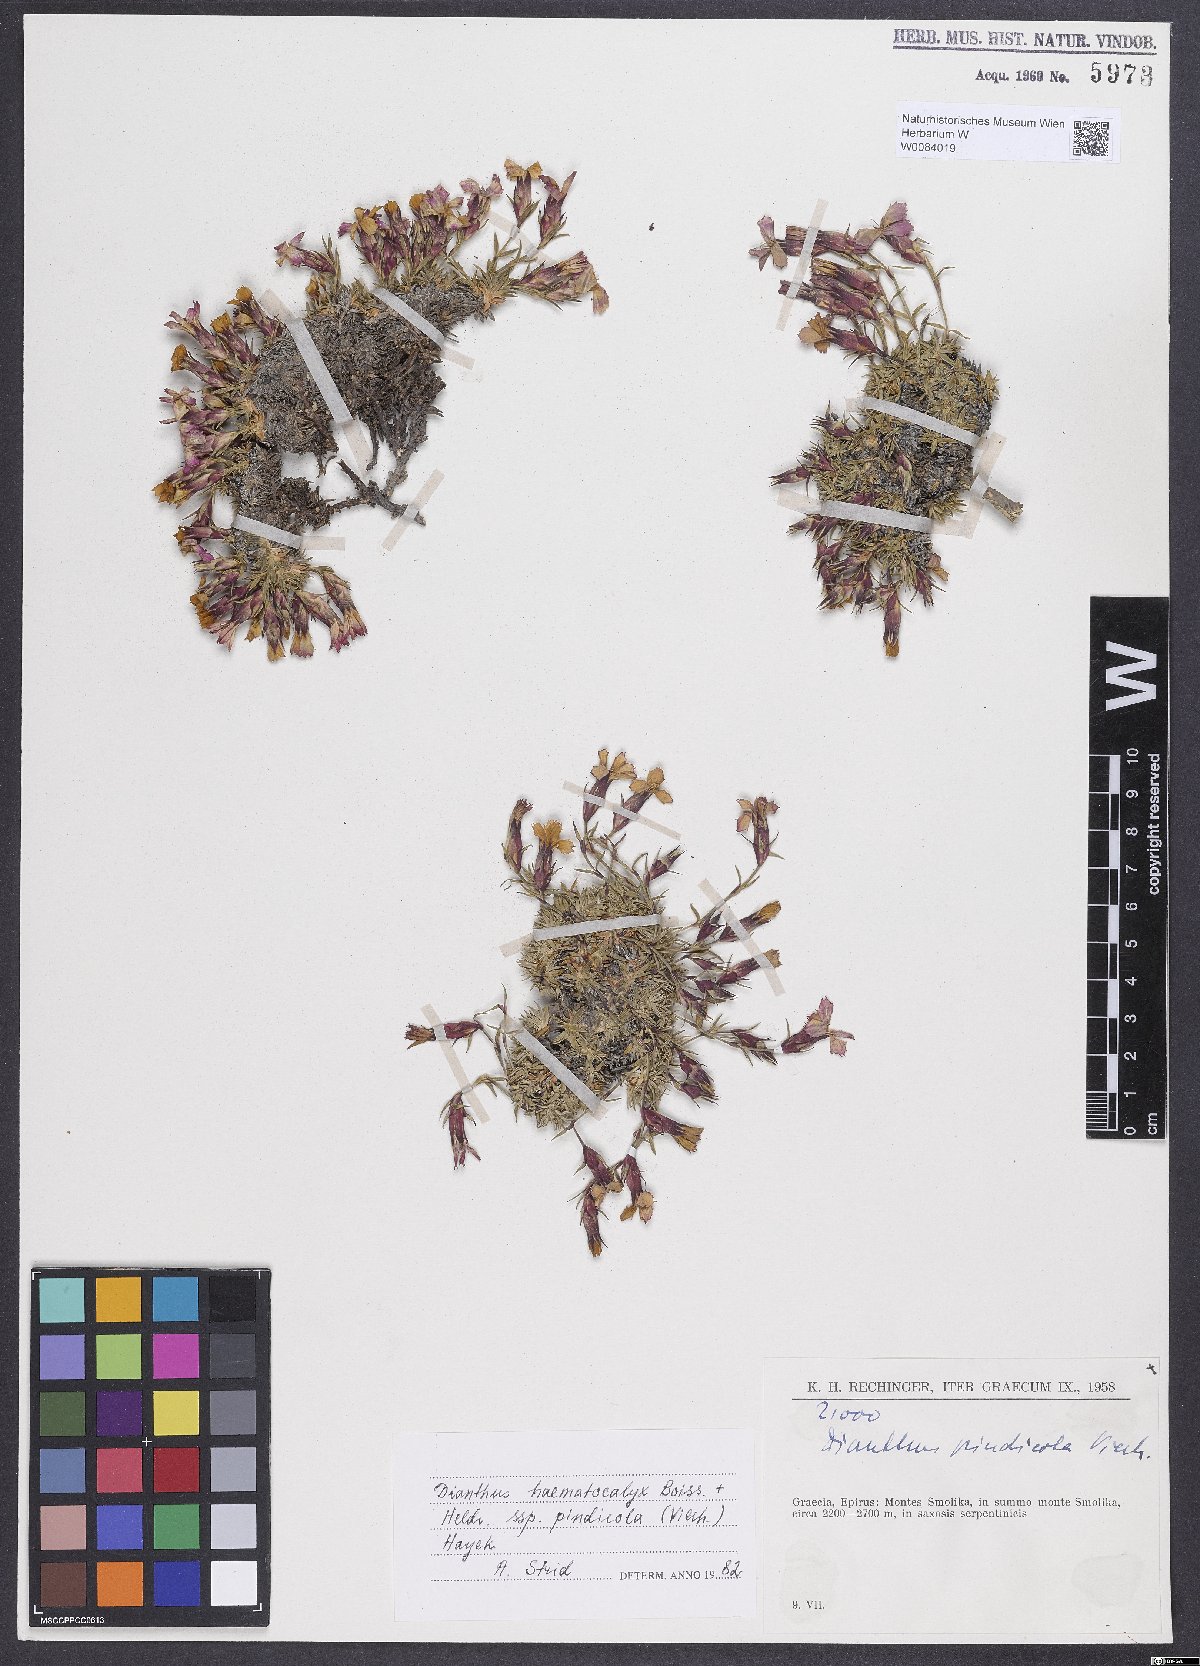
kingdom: Plantae
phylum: Tracheophyta
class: Magnoliopsida
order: Caryophyllales
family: Caryophyllaceae
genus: Dianthus
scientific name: Dianthus haematocalyx
